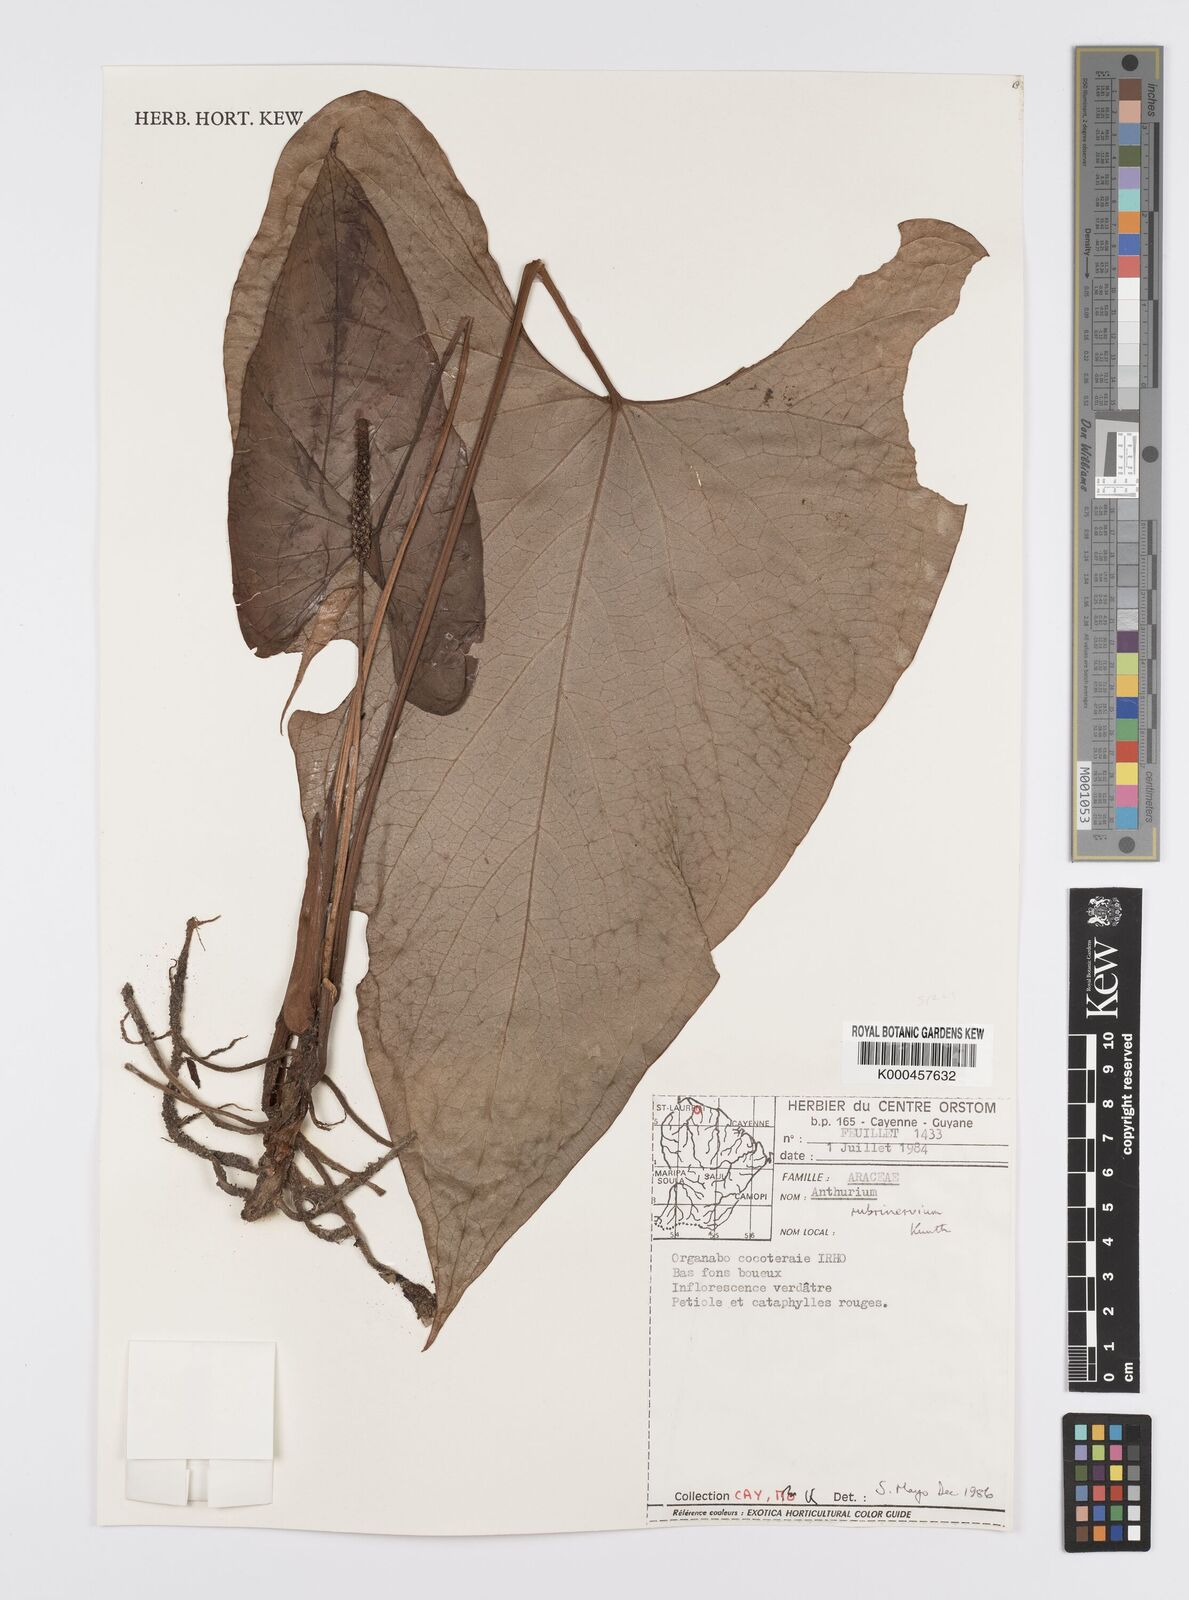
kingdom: Plantae
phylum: Tracheophyta
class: Liliopsida
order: Alismatales
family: Araceae
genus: Anthurium
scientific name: Anthurium sagittatum
